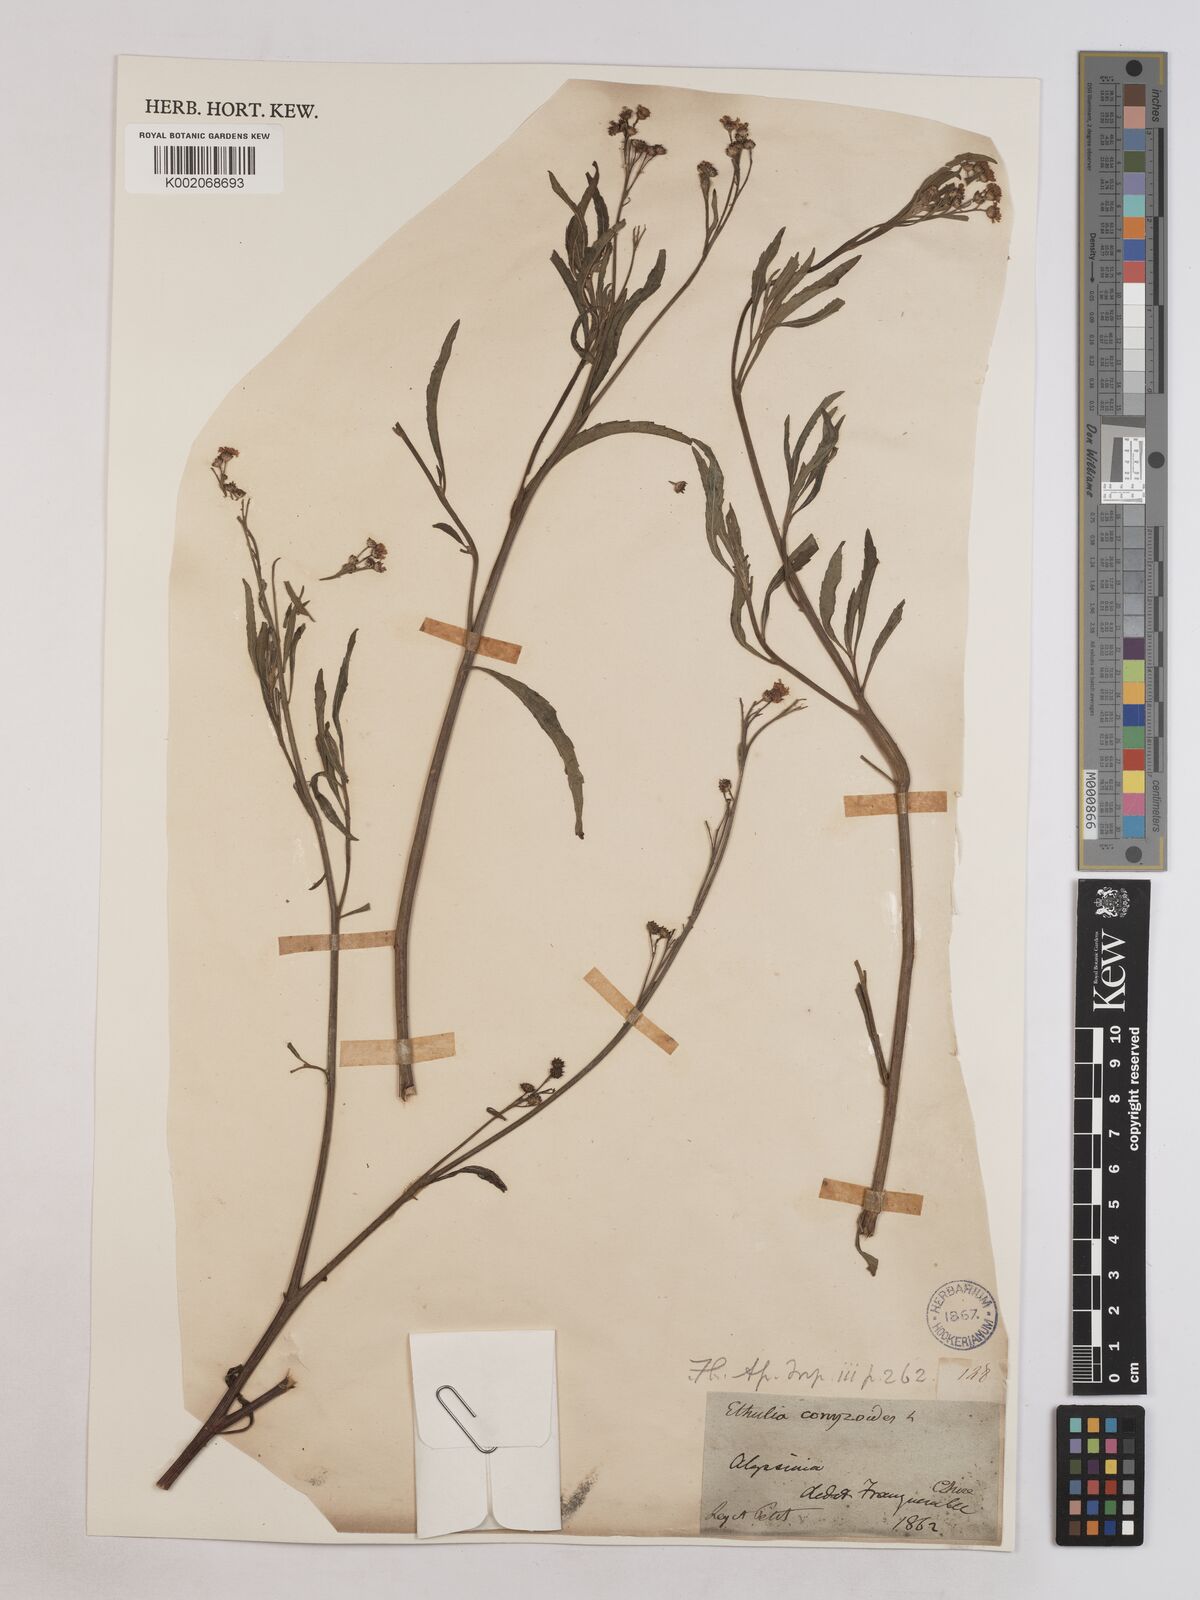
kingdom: Plantae
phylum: Tracheophyta
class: Magnoliopsida
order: Asterales
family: Asteraceae
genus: Ethulia
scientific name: Ethulia gracilis
